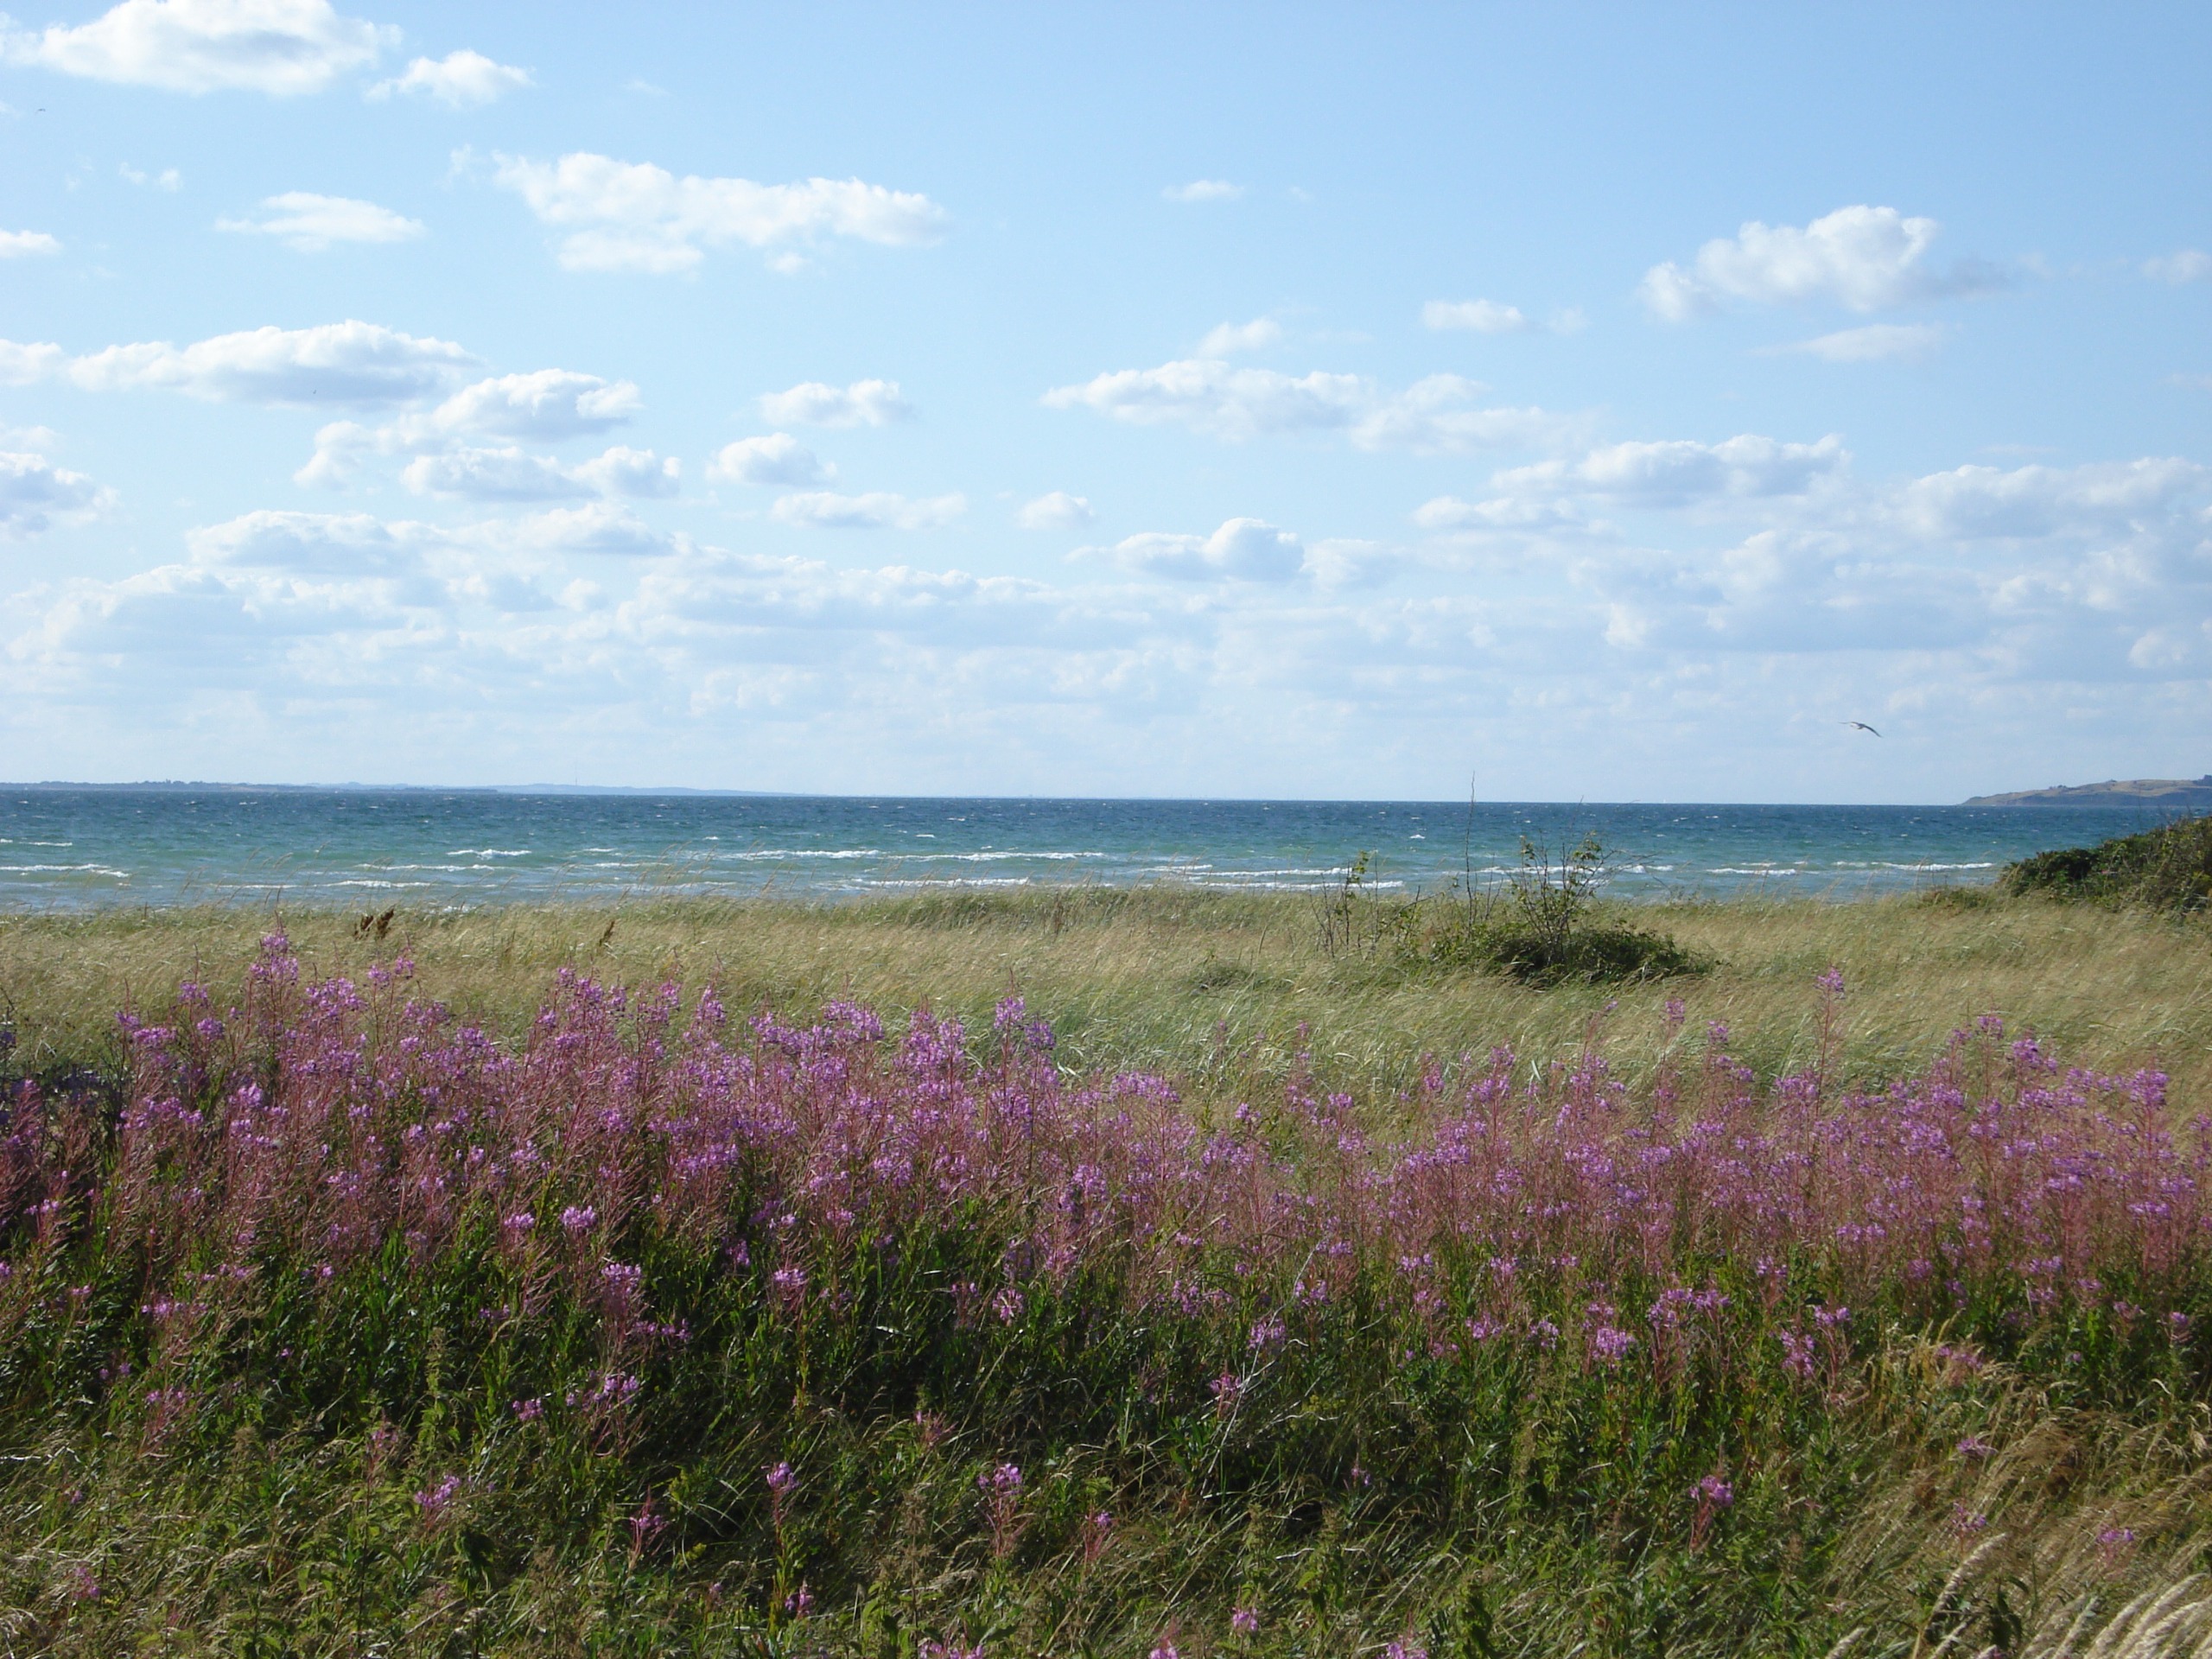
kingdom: Plantae
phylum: Tracheophyta
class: Magnoliopsida
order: Myrtales
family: Onagraceae
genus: Chamaenerion
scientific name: Chamaenerion angustifolium
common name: Gederams
